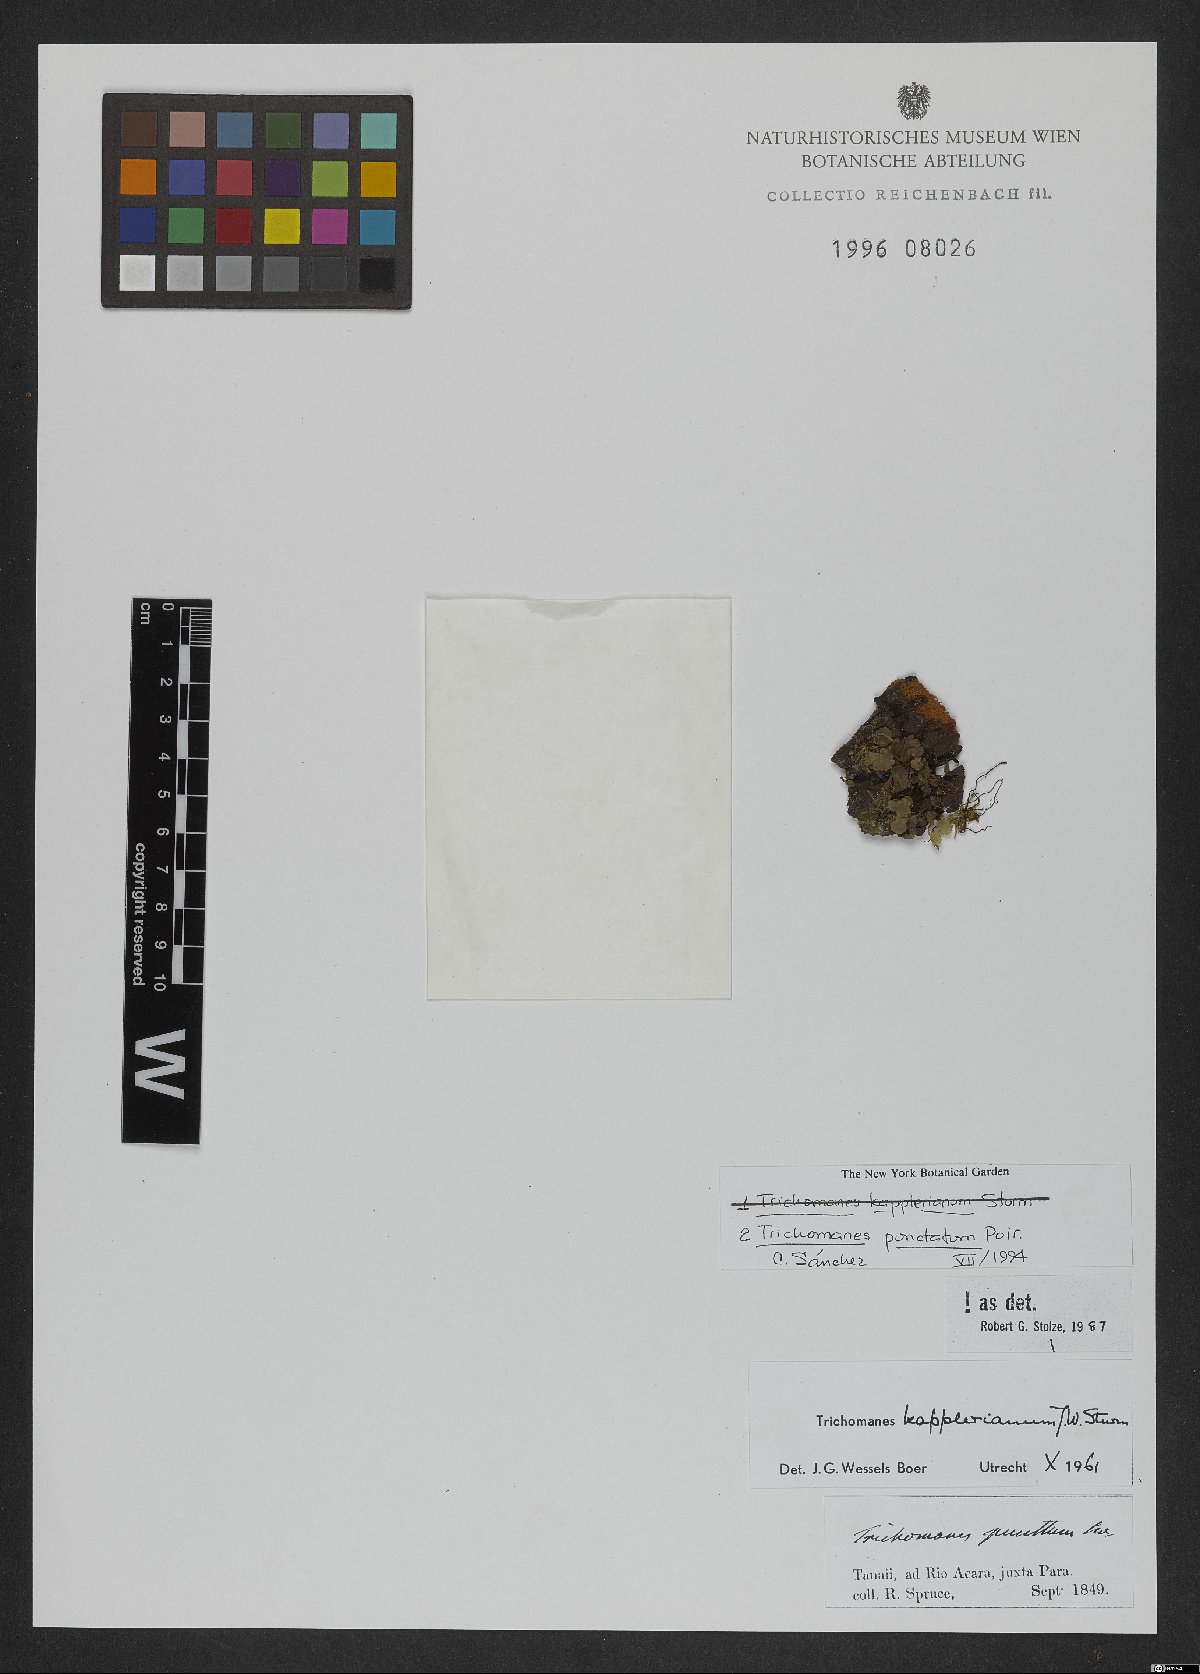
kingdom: Plantae
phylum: Tracheophyta
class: Polypodiopsida
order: Hymenophyllales
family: Hymenophyllaceae
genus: Didymoglossum
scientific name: Didymoglossum punctatum
